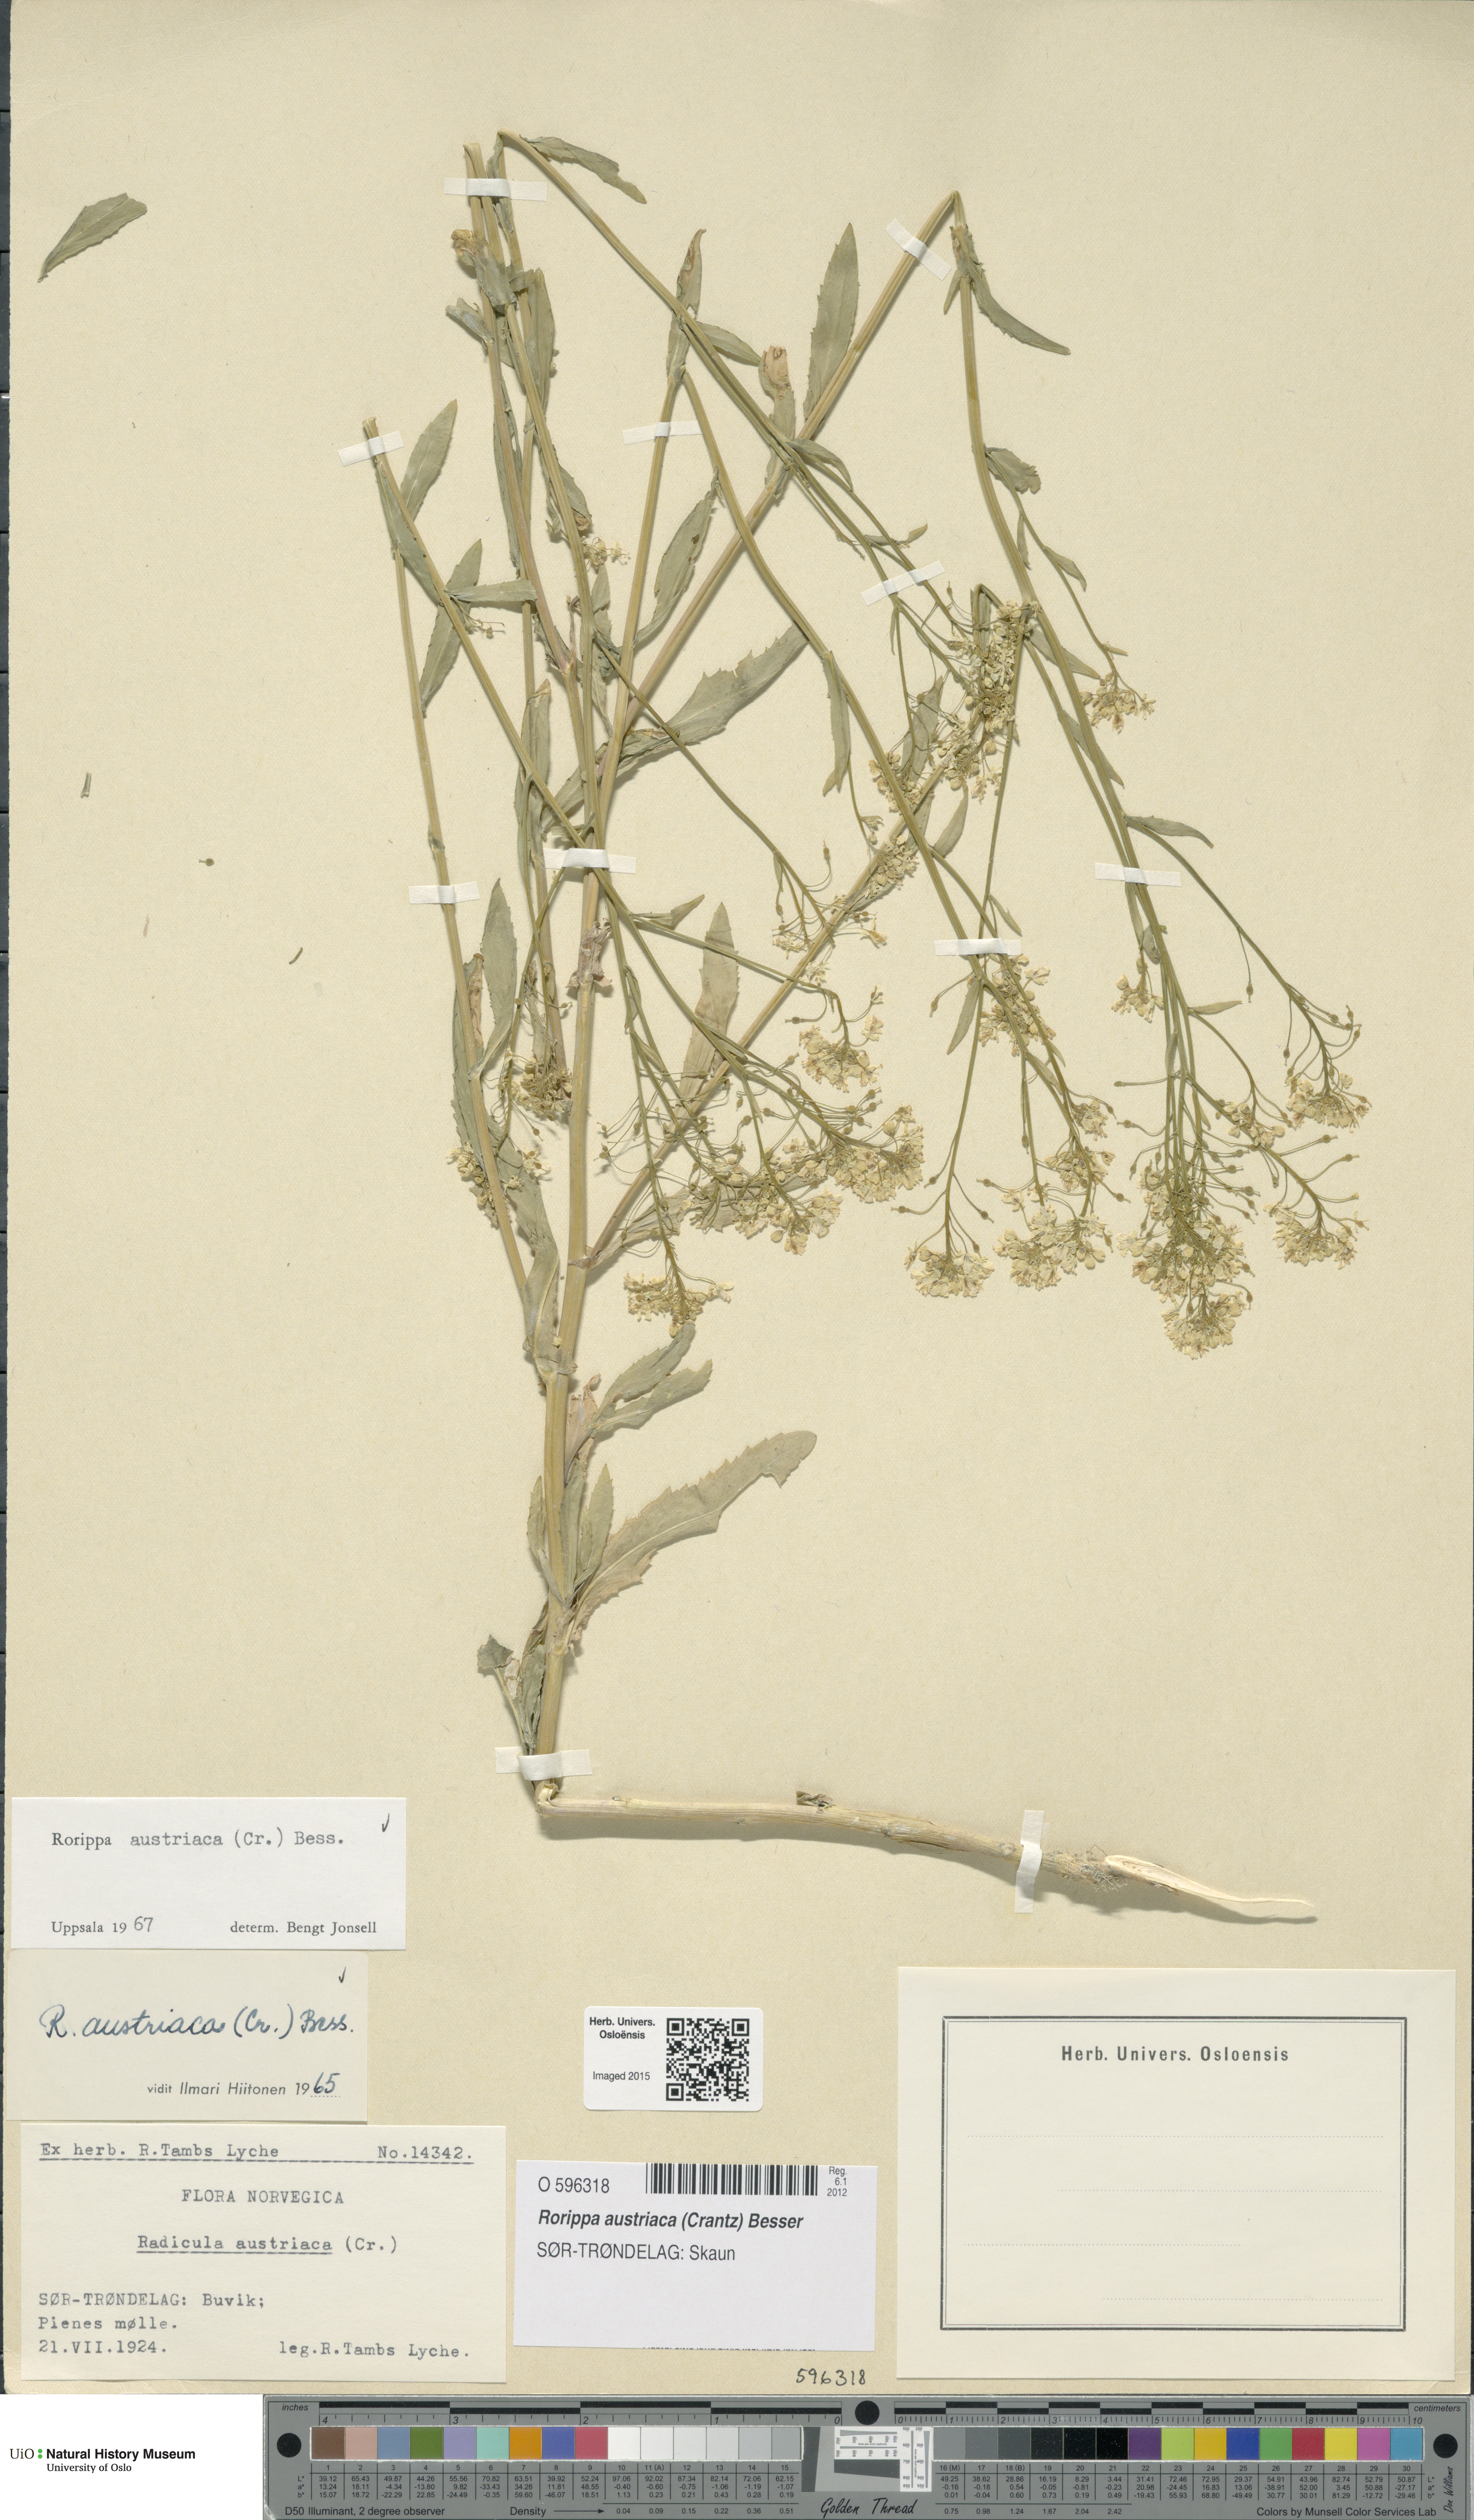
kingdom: Plantae
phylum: Tracheophyta
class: Magnoliopsida
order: Brassicales
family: Brassicaceae
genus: Rorippa
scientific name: Rorippa austriaca
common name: Austrian yellow-cress
